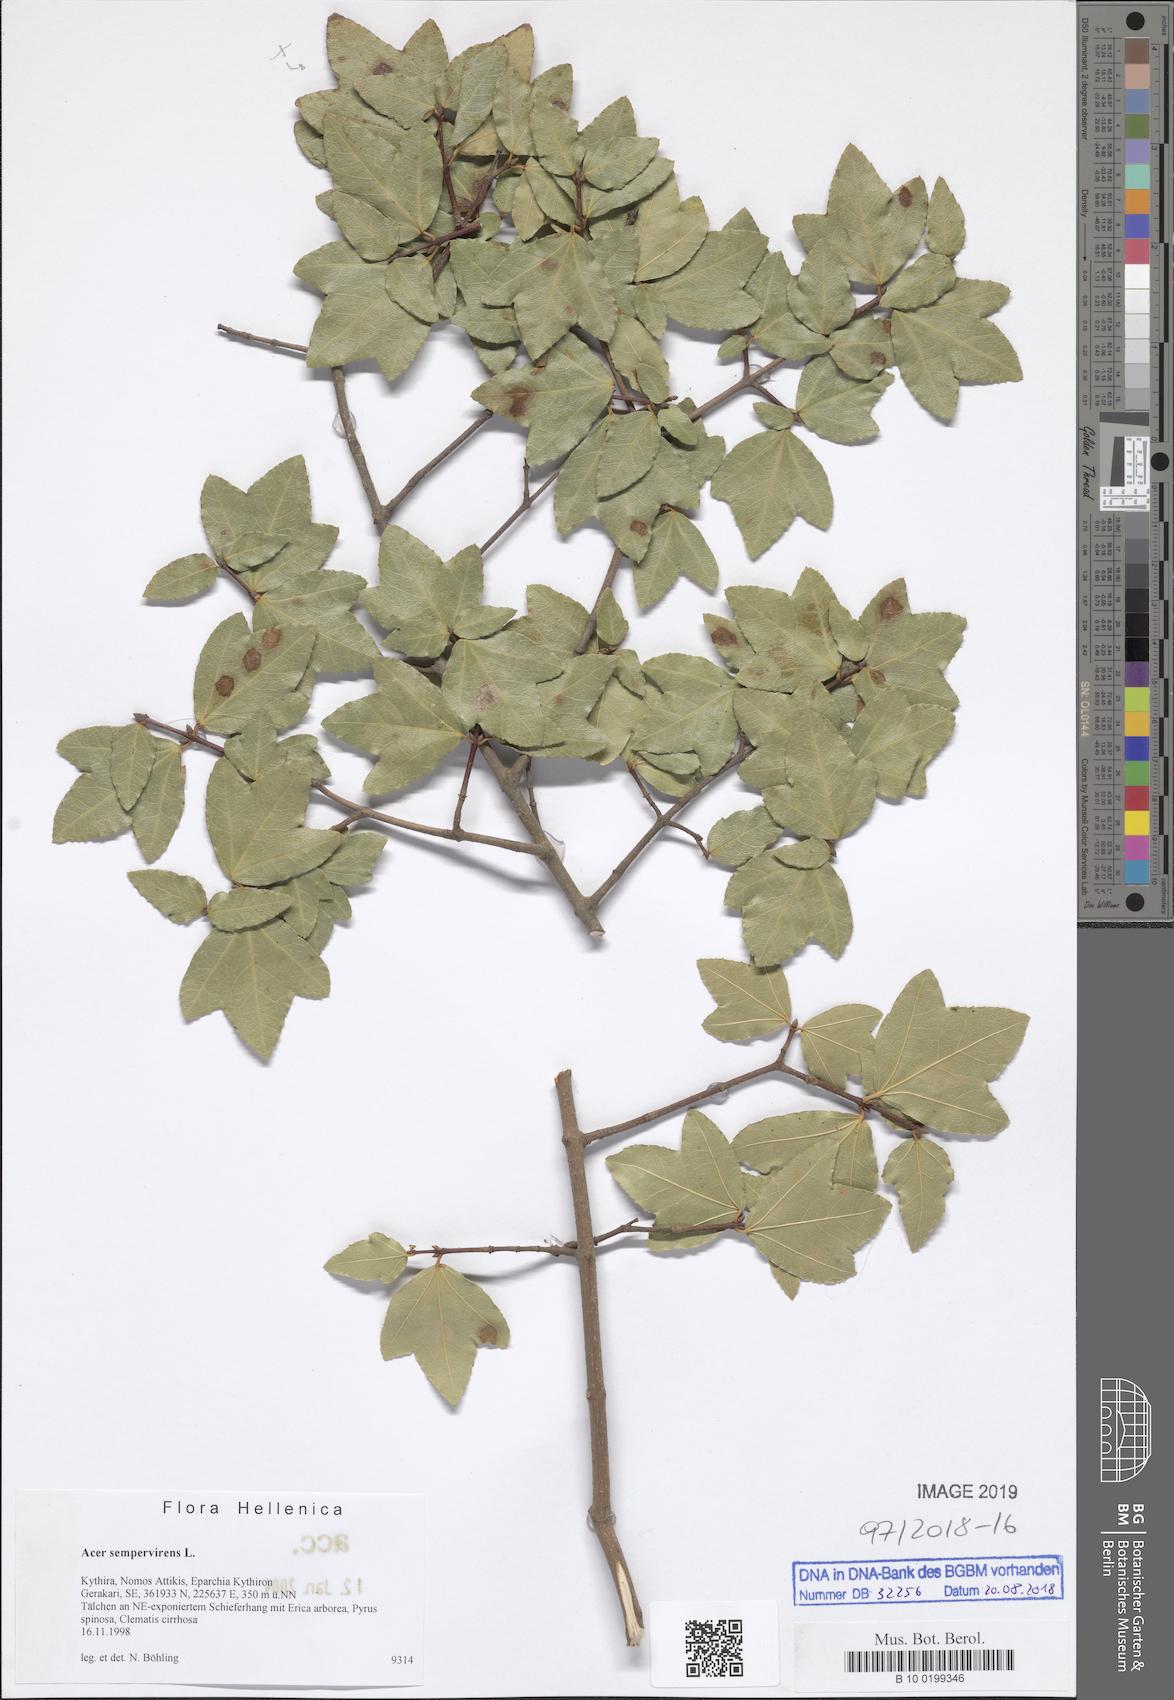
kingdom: Plantae
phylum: Tracheophyta
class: Magnoliopsida
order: Sapindales
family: Sapindaceae
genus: Acer
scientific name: Acer sempervirens
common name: Cretan maple
